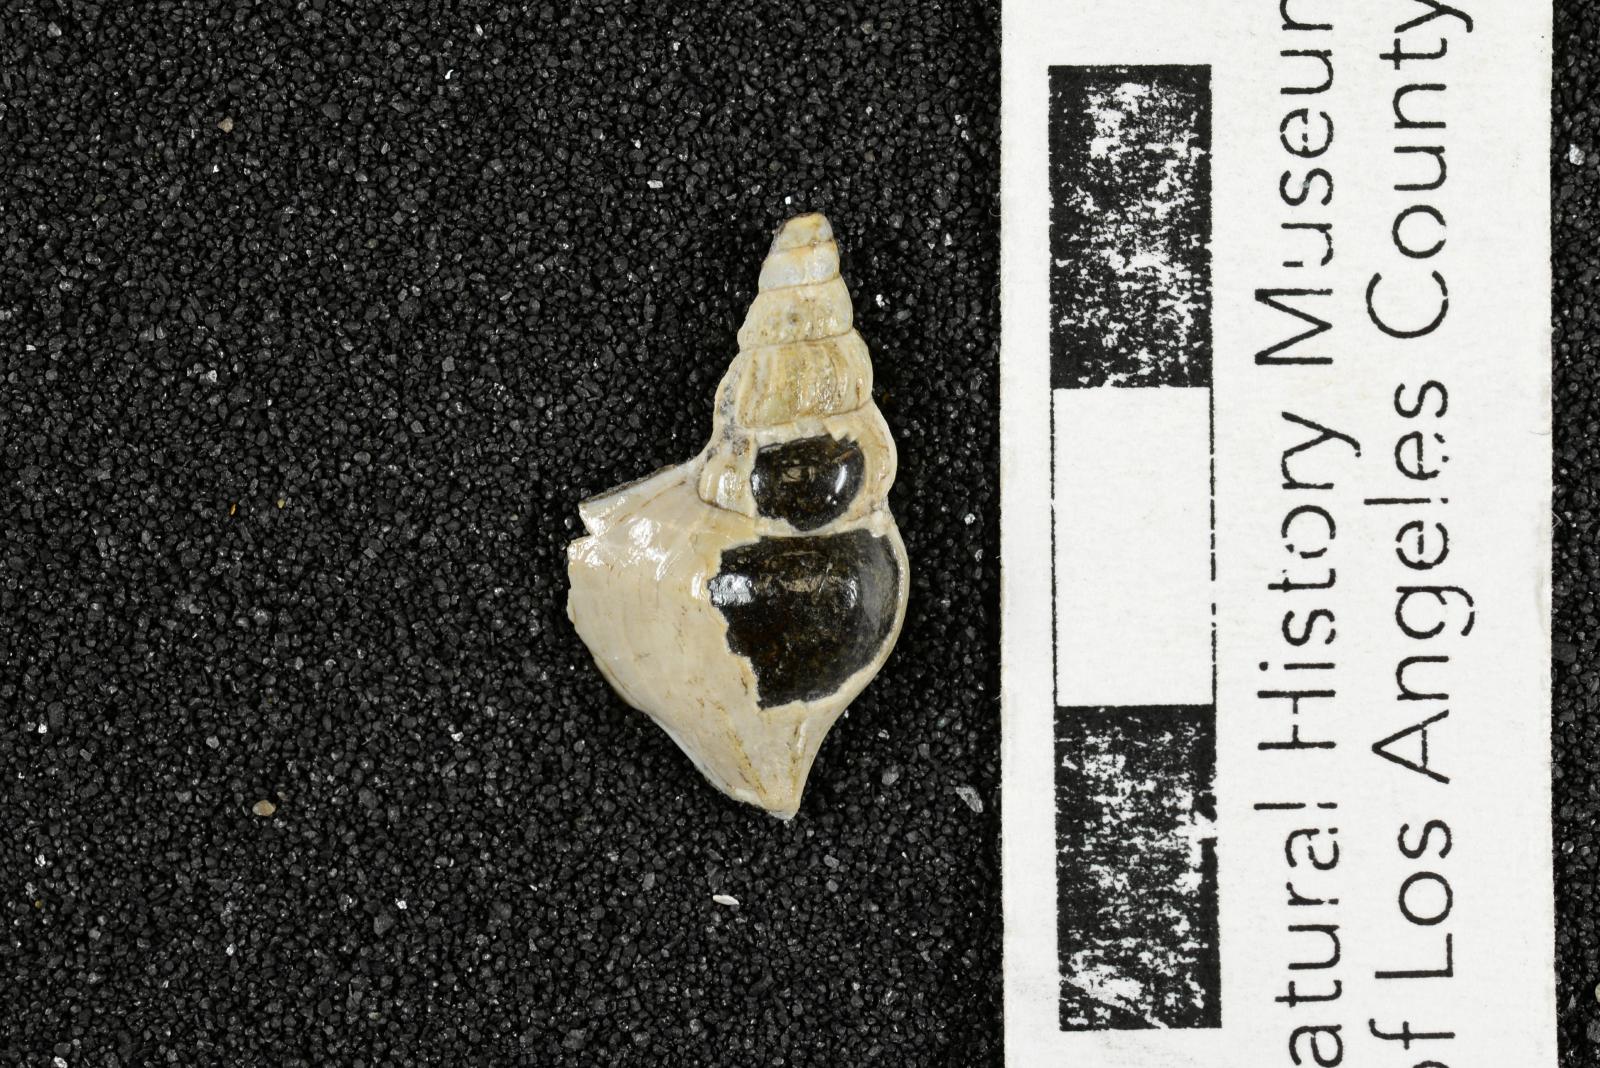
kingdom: Animalia
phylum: Mollusca
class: Gastropoda
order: Littorinimorpha
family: Aporrhaidae
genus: Latiala
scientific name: Latiala heliaca
